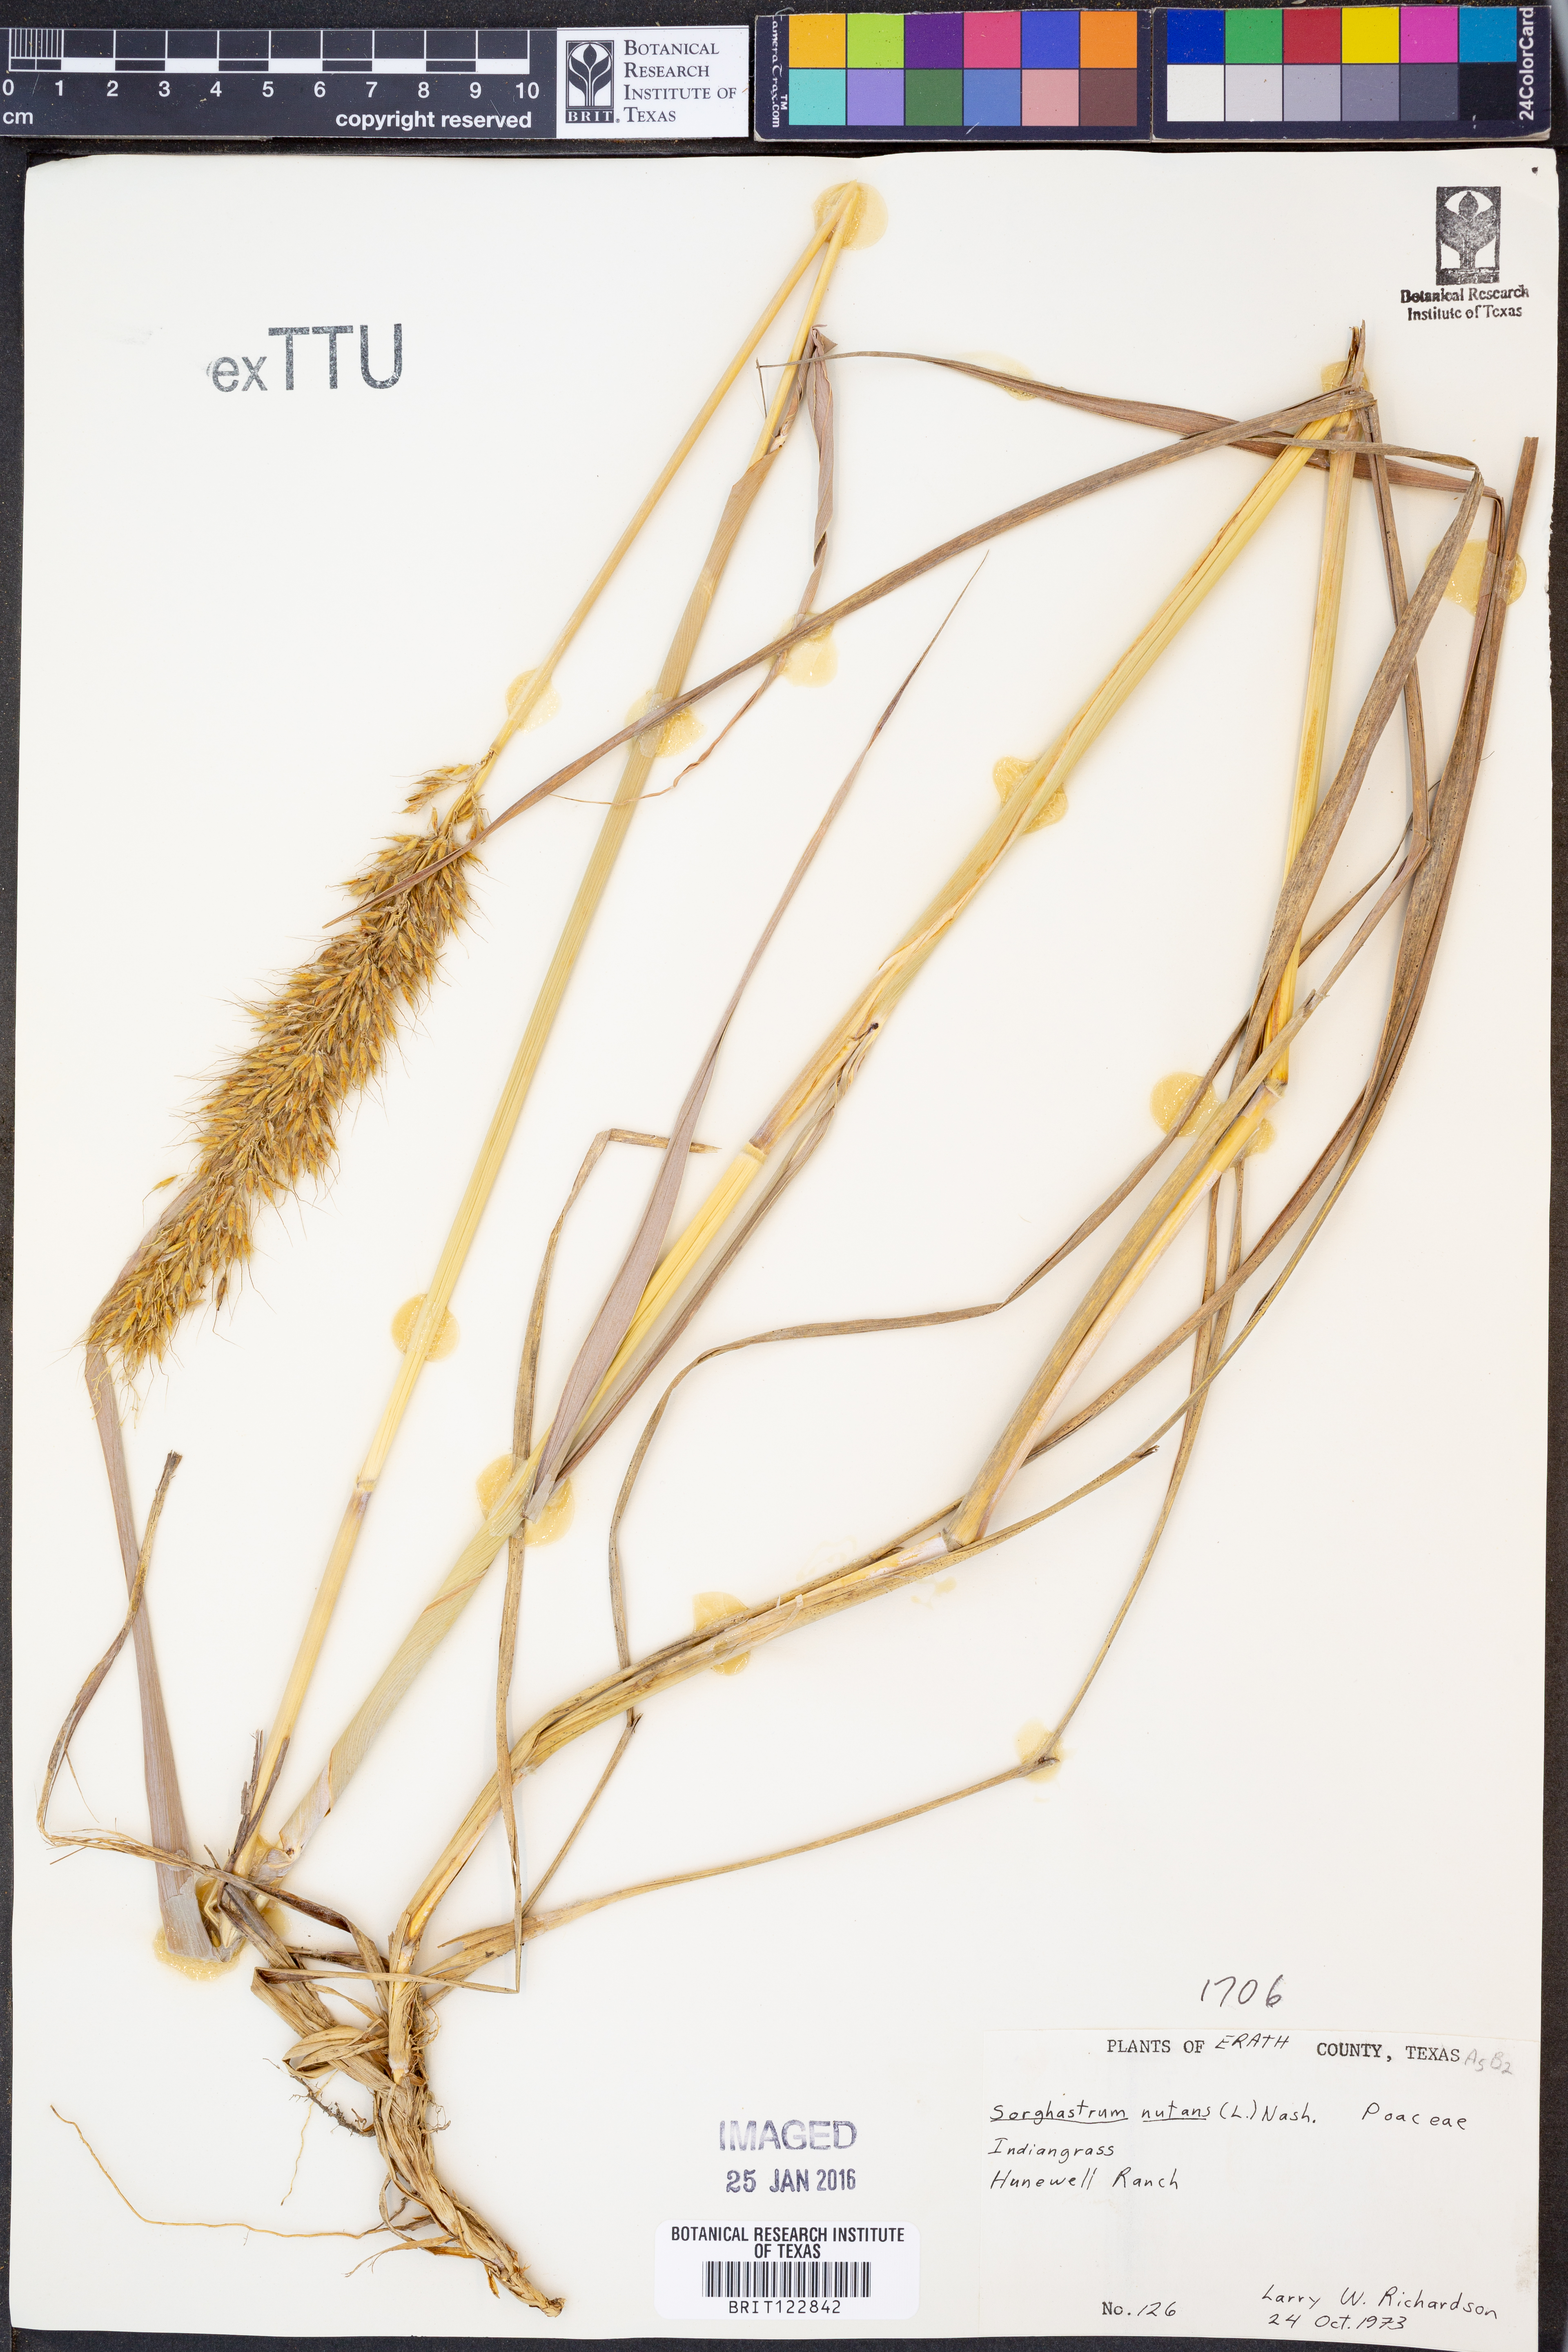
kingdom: Plantae
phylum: Tracheophyta
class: Liliopsida
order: Poales
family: Poaceae
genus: Sorghastrum
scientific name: Sorghastrum nutans
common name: Indian grass
